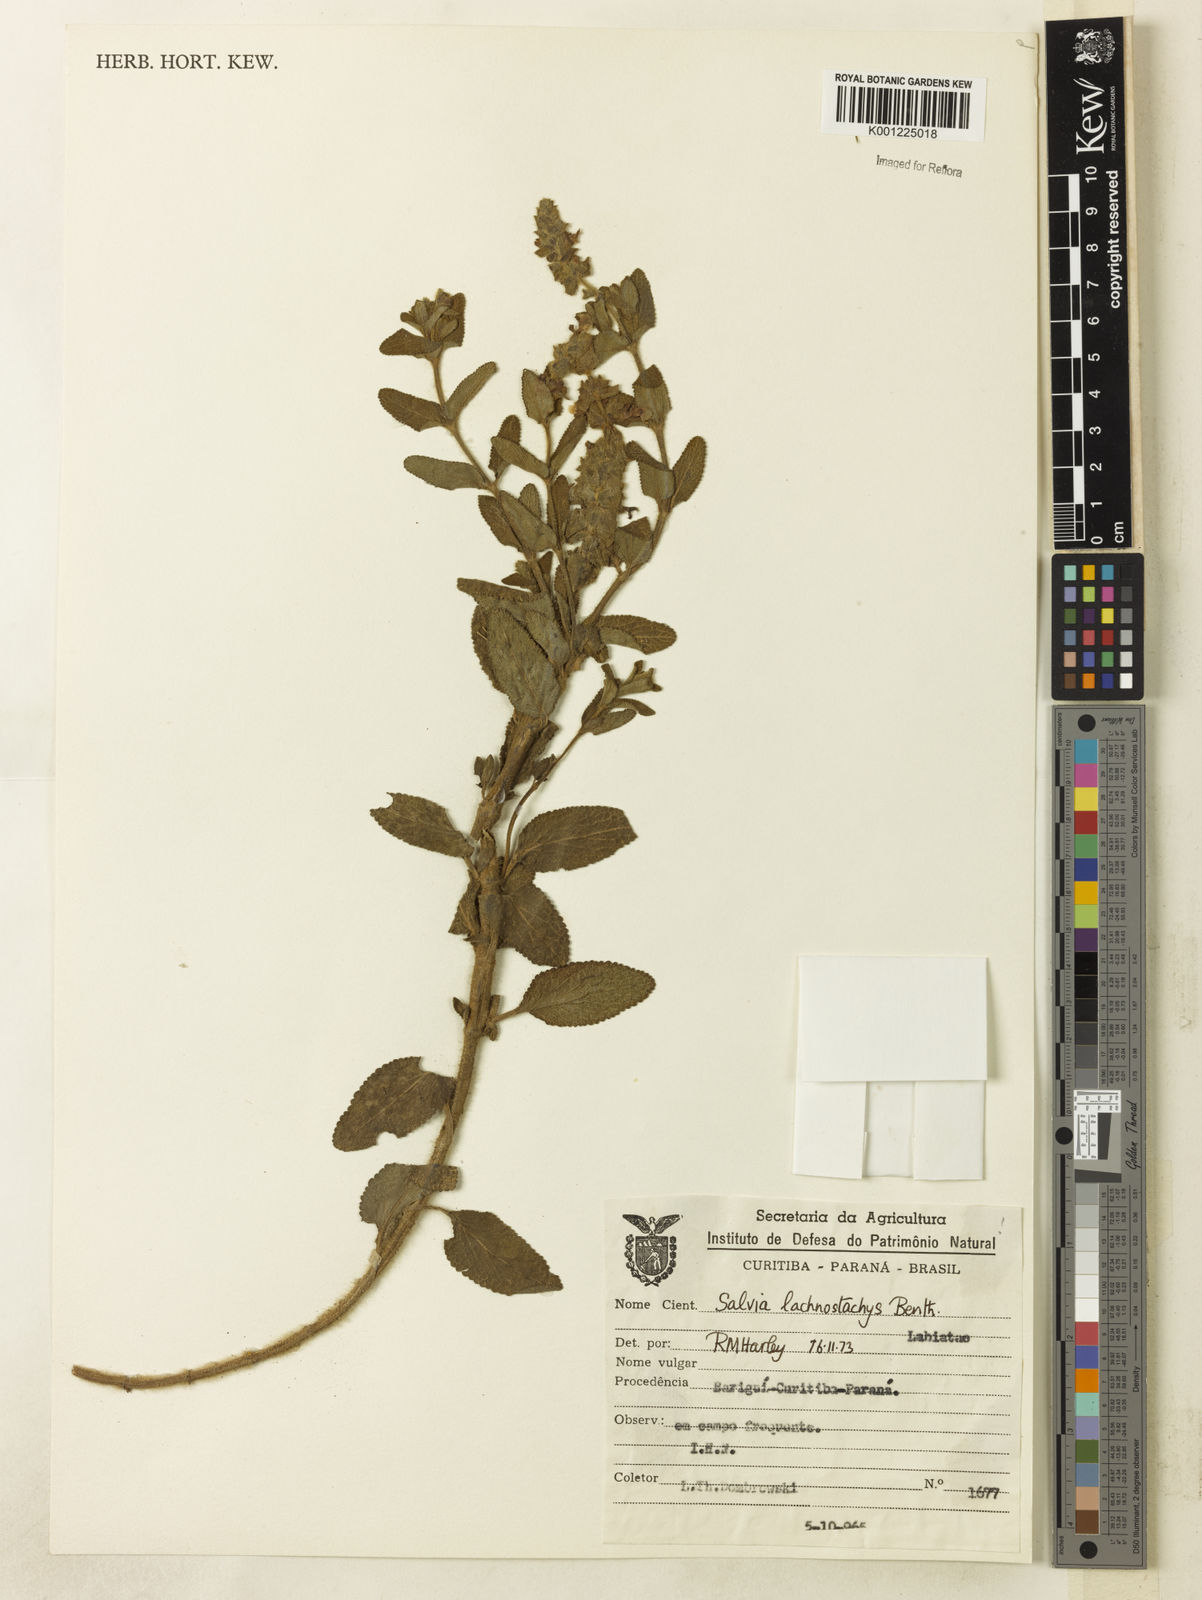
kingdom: Plantae
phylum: Tracheophyta
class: Magnoliopsida
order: Lamiales
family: Lamiaceae
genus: Salvia
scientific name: Salvia lachnostachys
